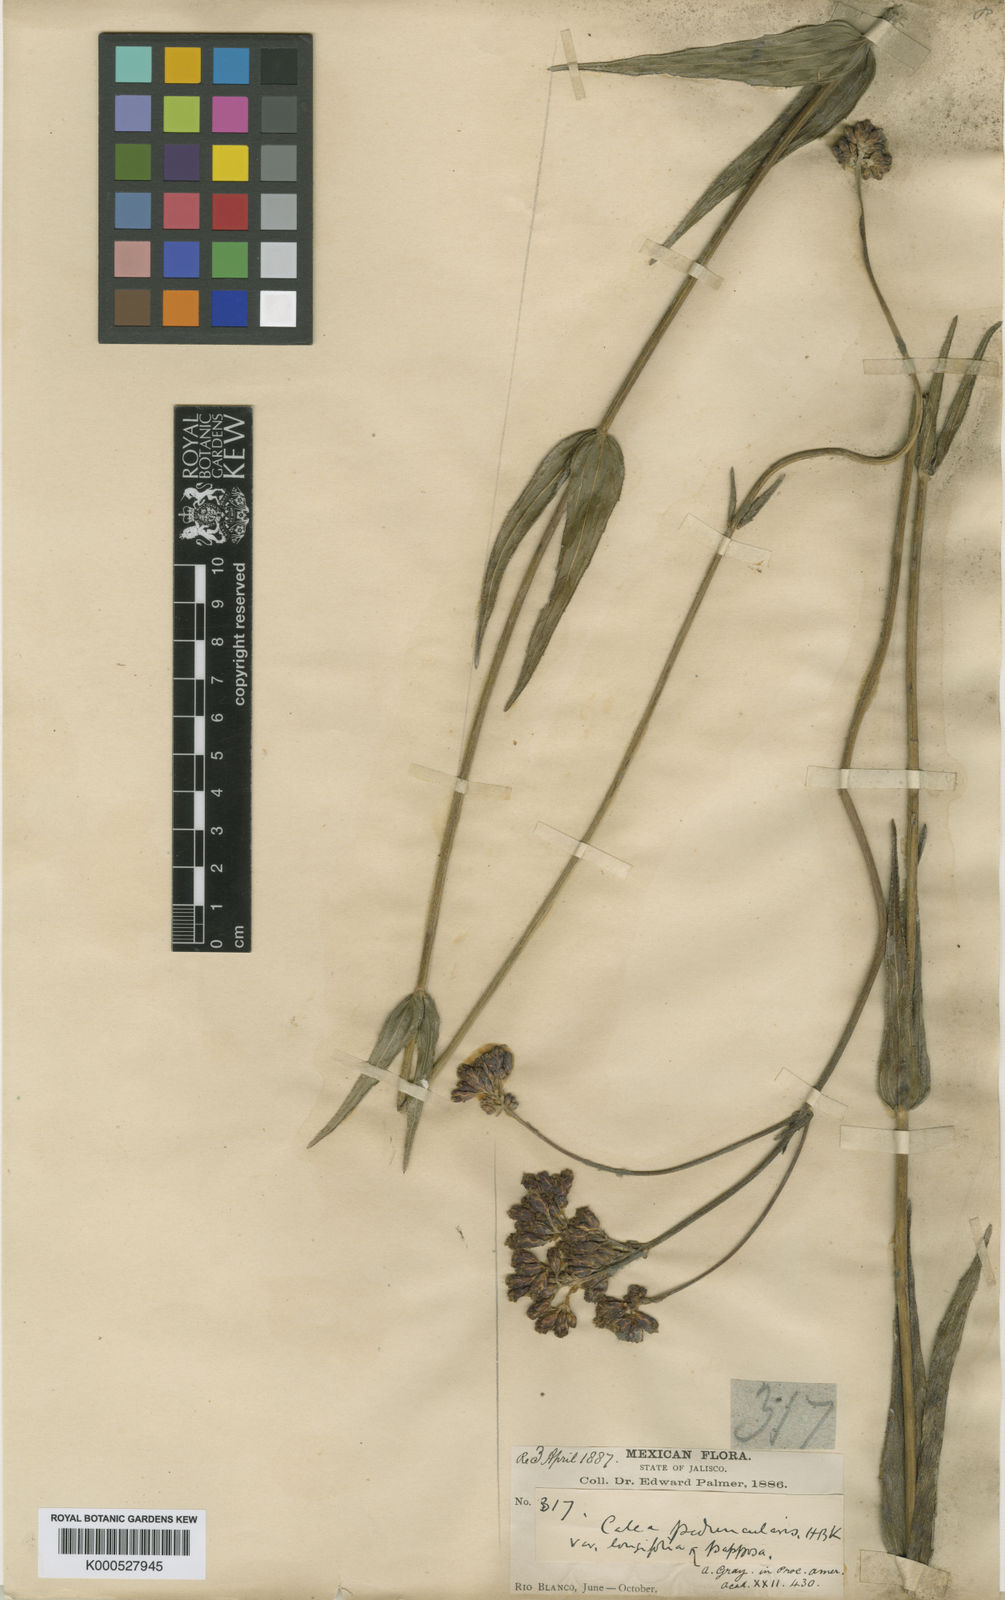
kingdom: Plantae
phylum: Tracheophyta
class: Magnoliopsida
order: Asterales
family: Asteraceae
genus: Alloispermum
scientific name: Alloispermum scabrum
